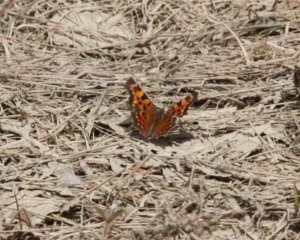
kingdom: Animalia
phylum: Arthropoda
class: Insecta
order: Lepidoptera
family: Nymphalidae
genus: Polygonia
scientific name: Polygonia progne
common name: Gray Comma
